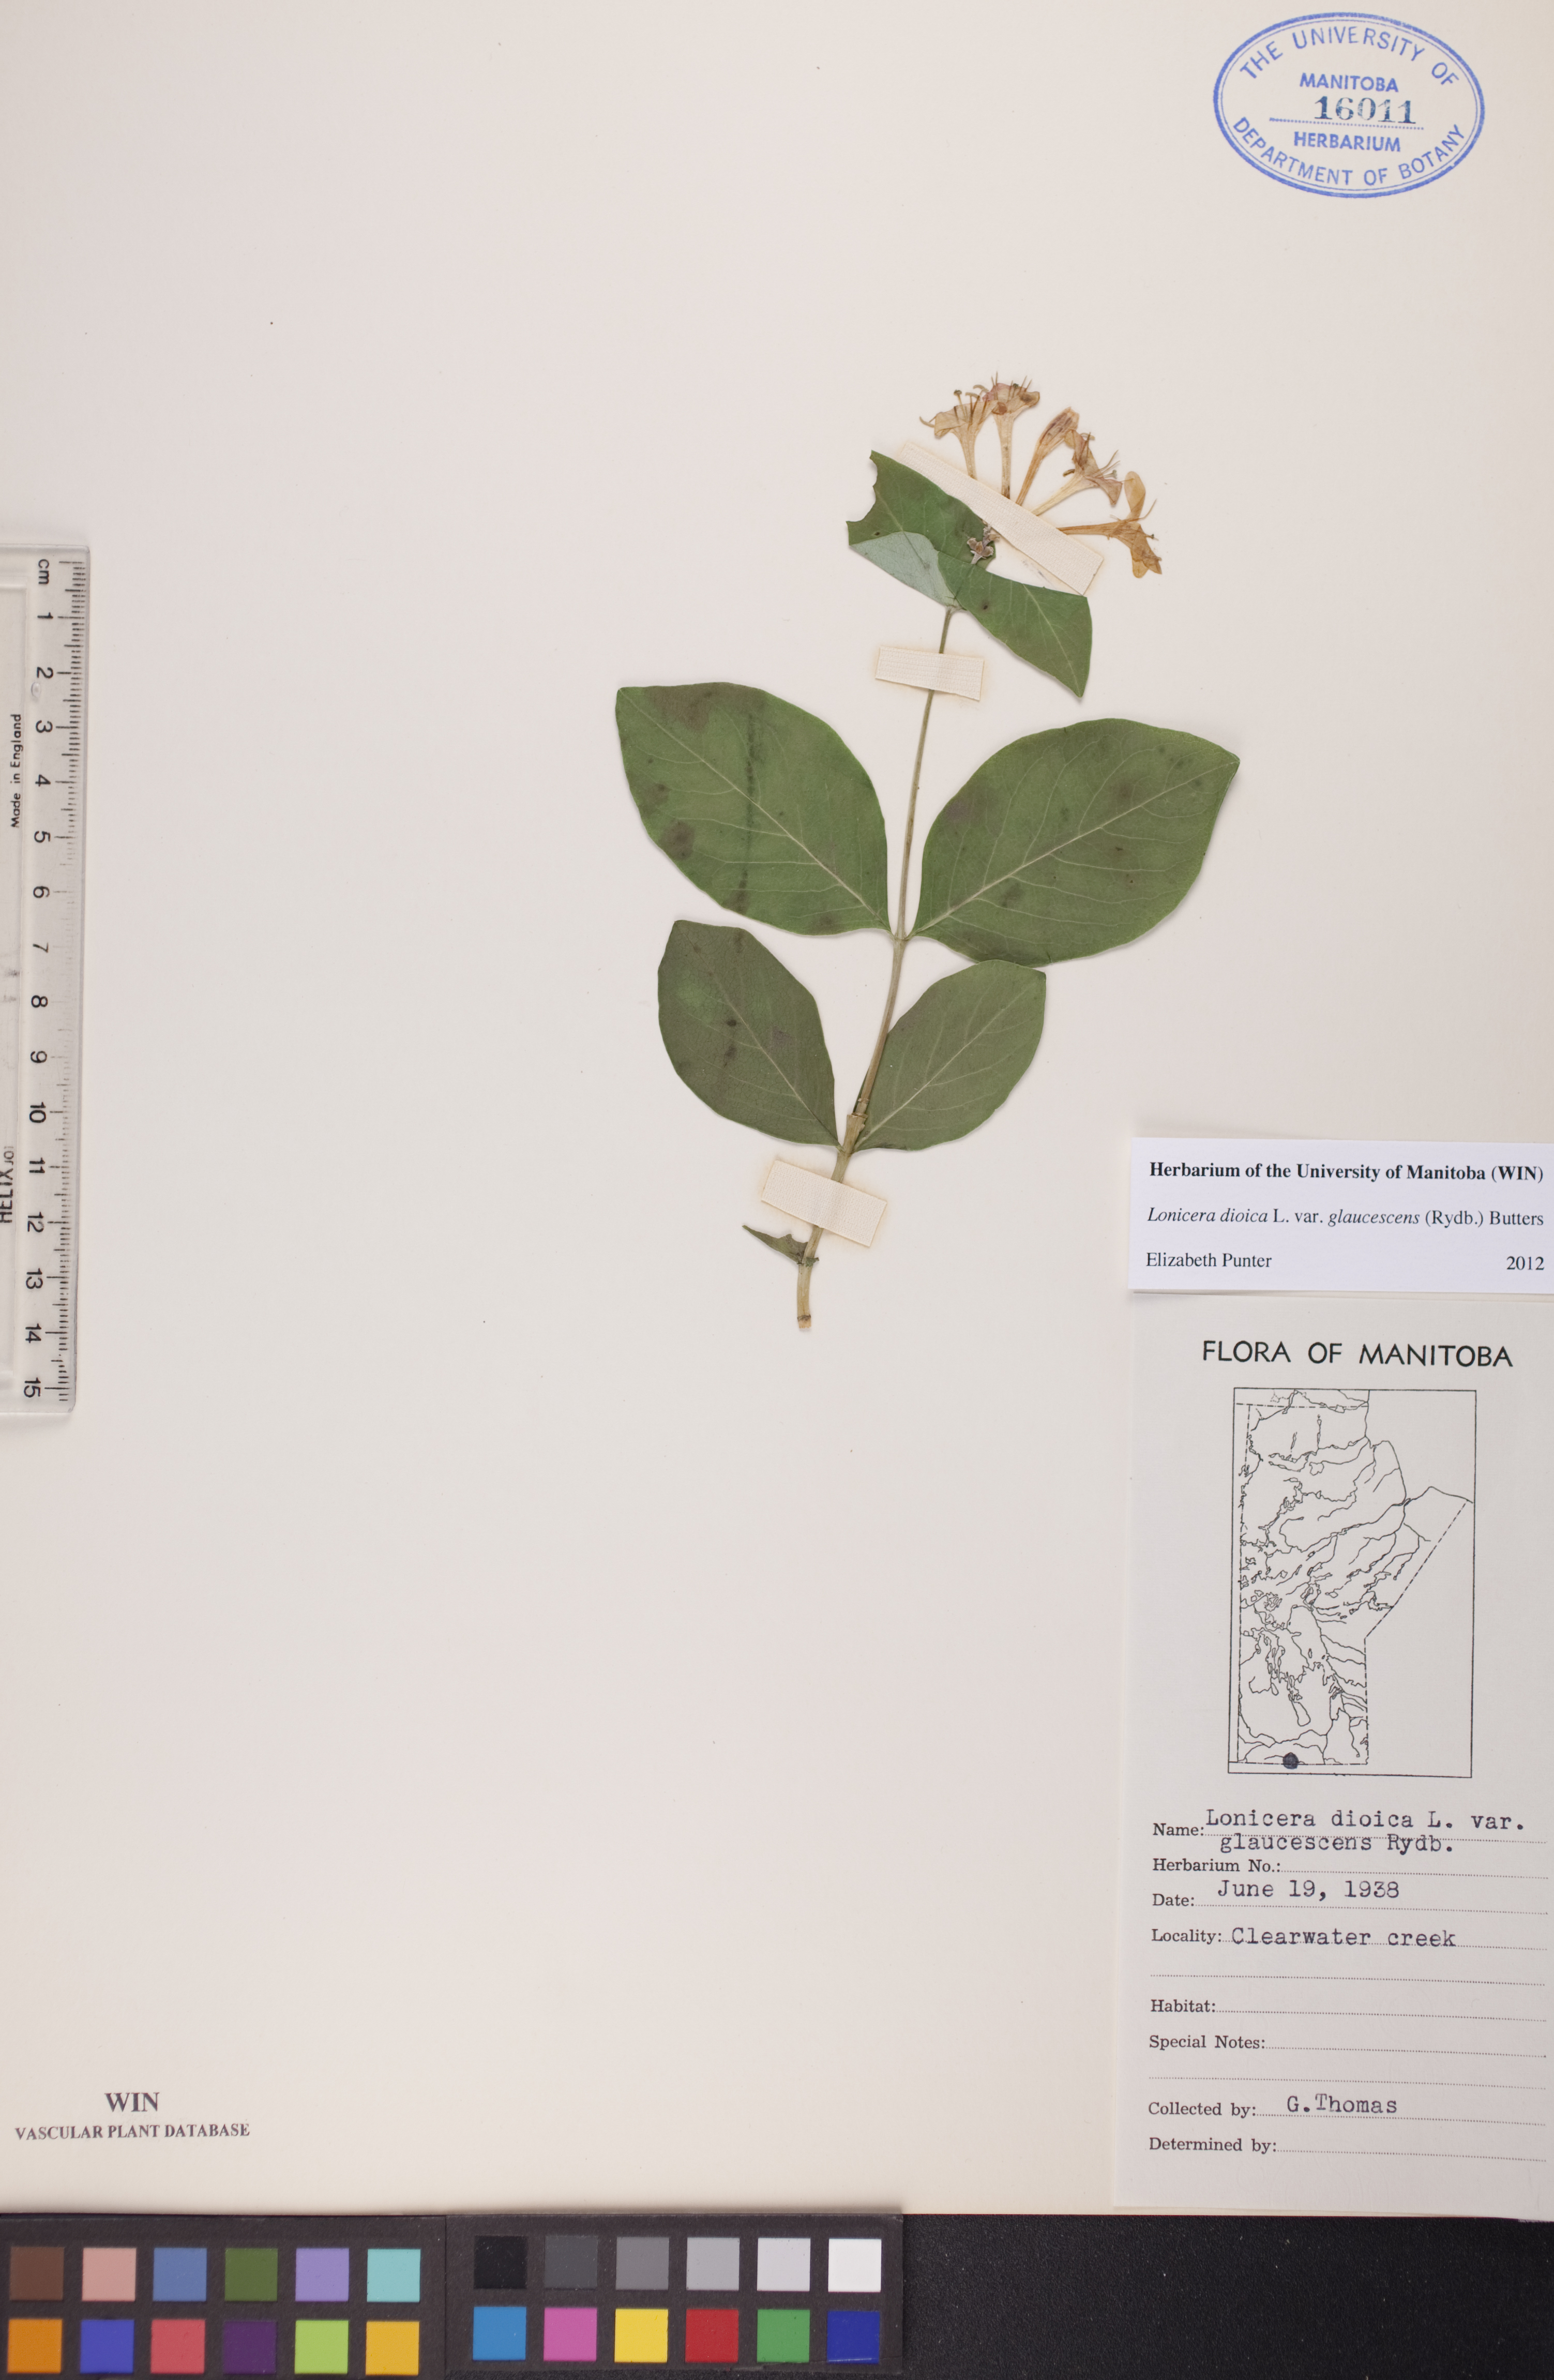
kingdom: Plantae
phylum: Tracheophyta
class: Magnoliopsida
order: Dipsacales
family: Caprifoliaceae
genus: Lonicera
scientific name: Lonicera dioica
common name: Limber honeysuckle
